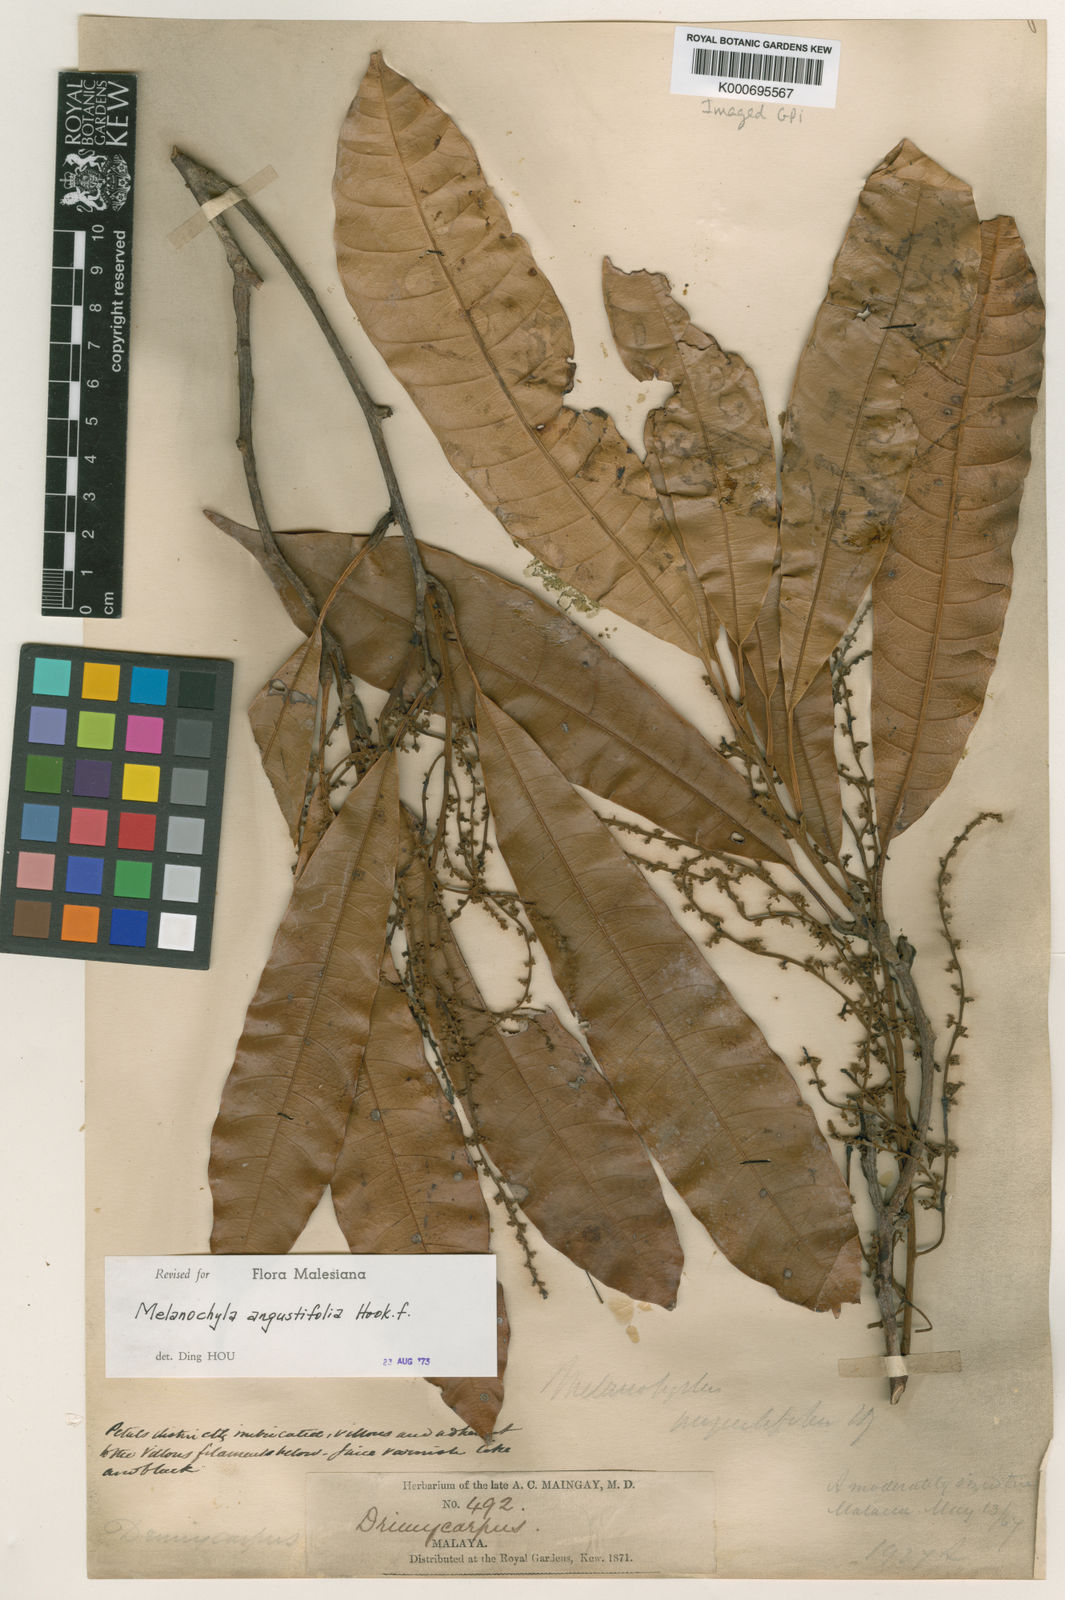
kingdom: Plantae
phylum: Tracheophyta
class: Magnoliopsida
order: Sapindales
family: Anacardiaceae
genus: Melanochyla
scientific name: Melanochyla angustifolia
